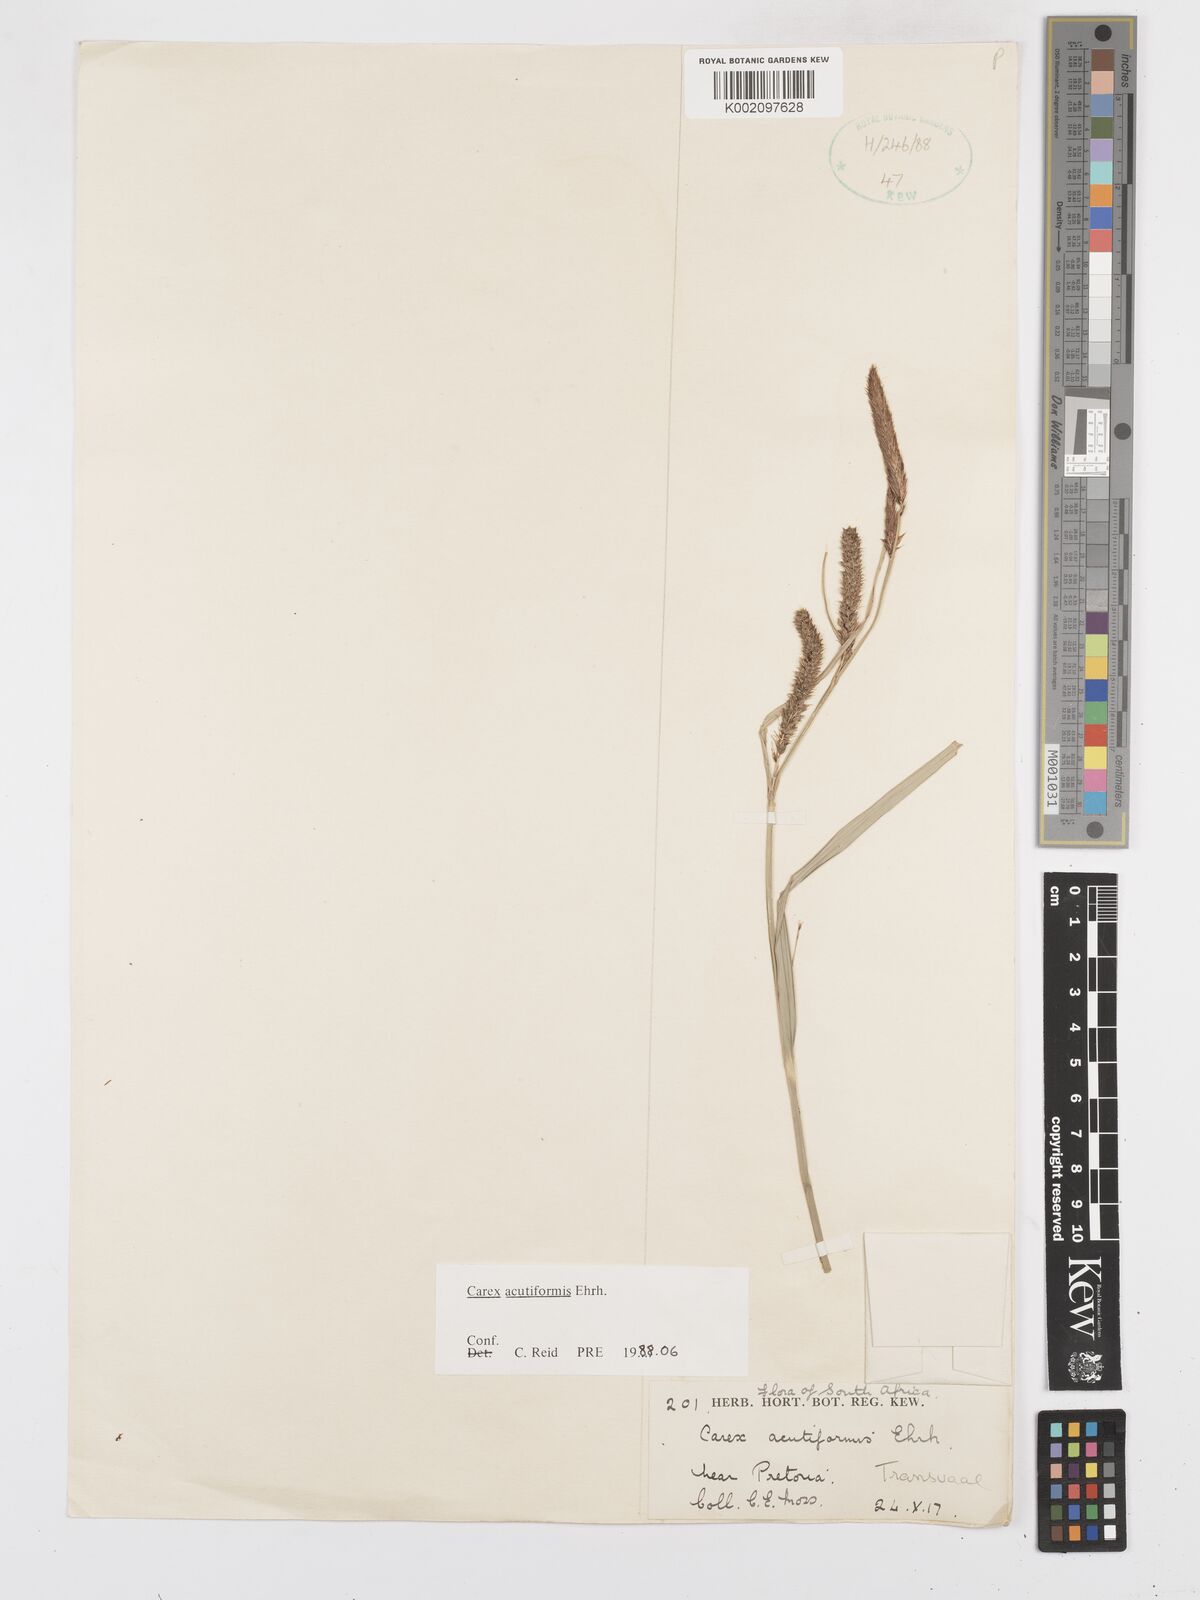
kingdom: Plantae
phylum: Tracheophyta
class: Liliopsida
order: Poales
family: Cyperaceae
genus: Carex
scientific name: Carex acutiformis
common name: Lesser pond-sedge
